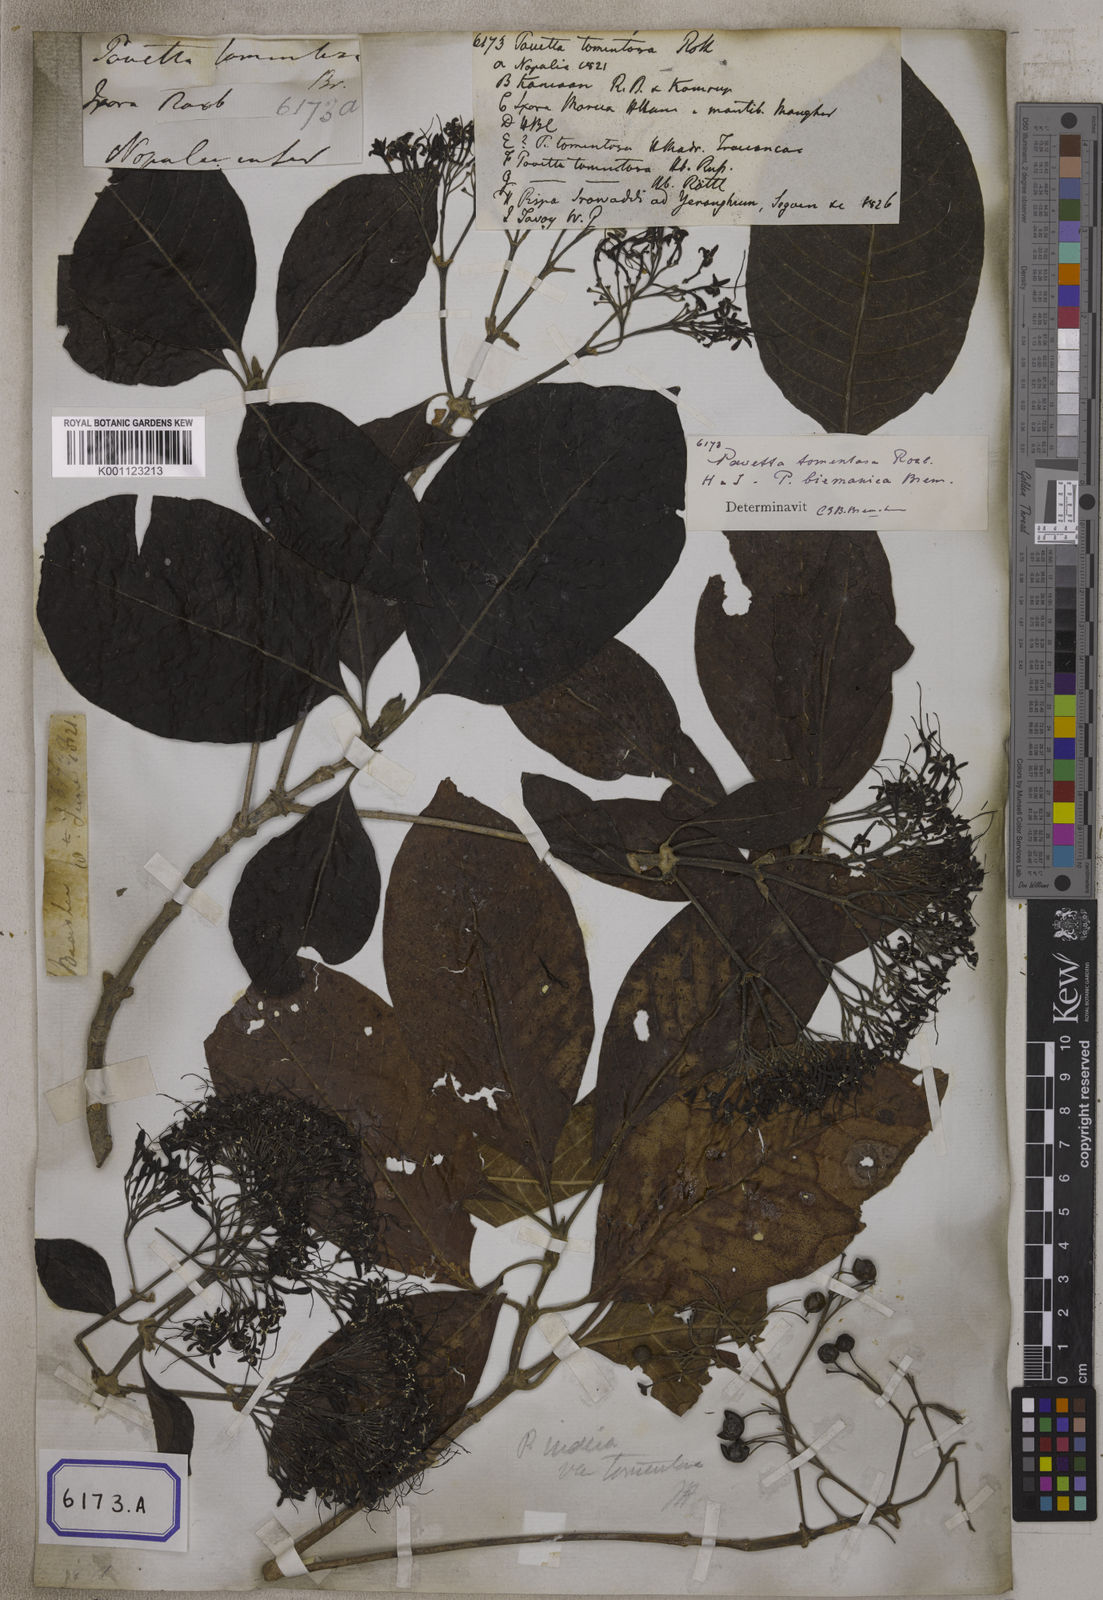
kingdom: Plantae
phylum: Tracheophyta
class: Magnoliopsida
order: Gentianales
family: Rubiaceae
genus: Pavetta
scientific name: Pavetta tomentosa
